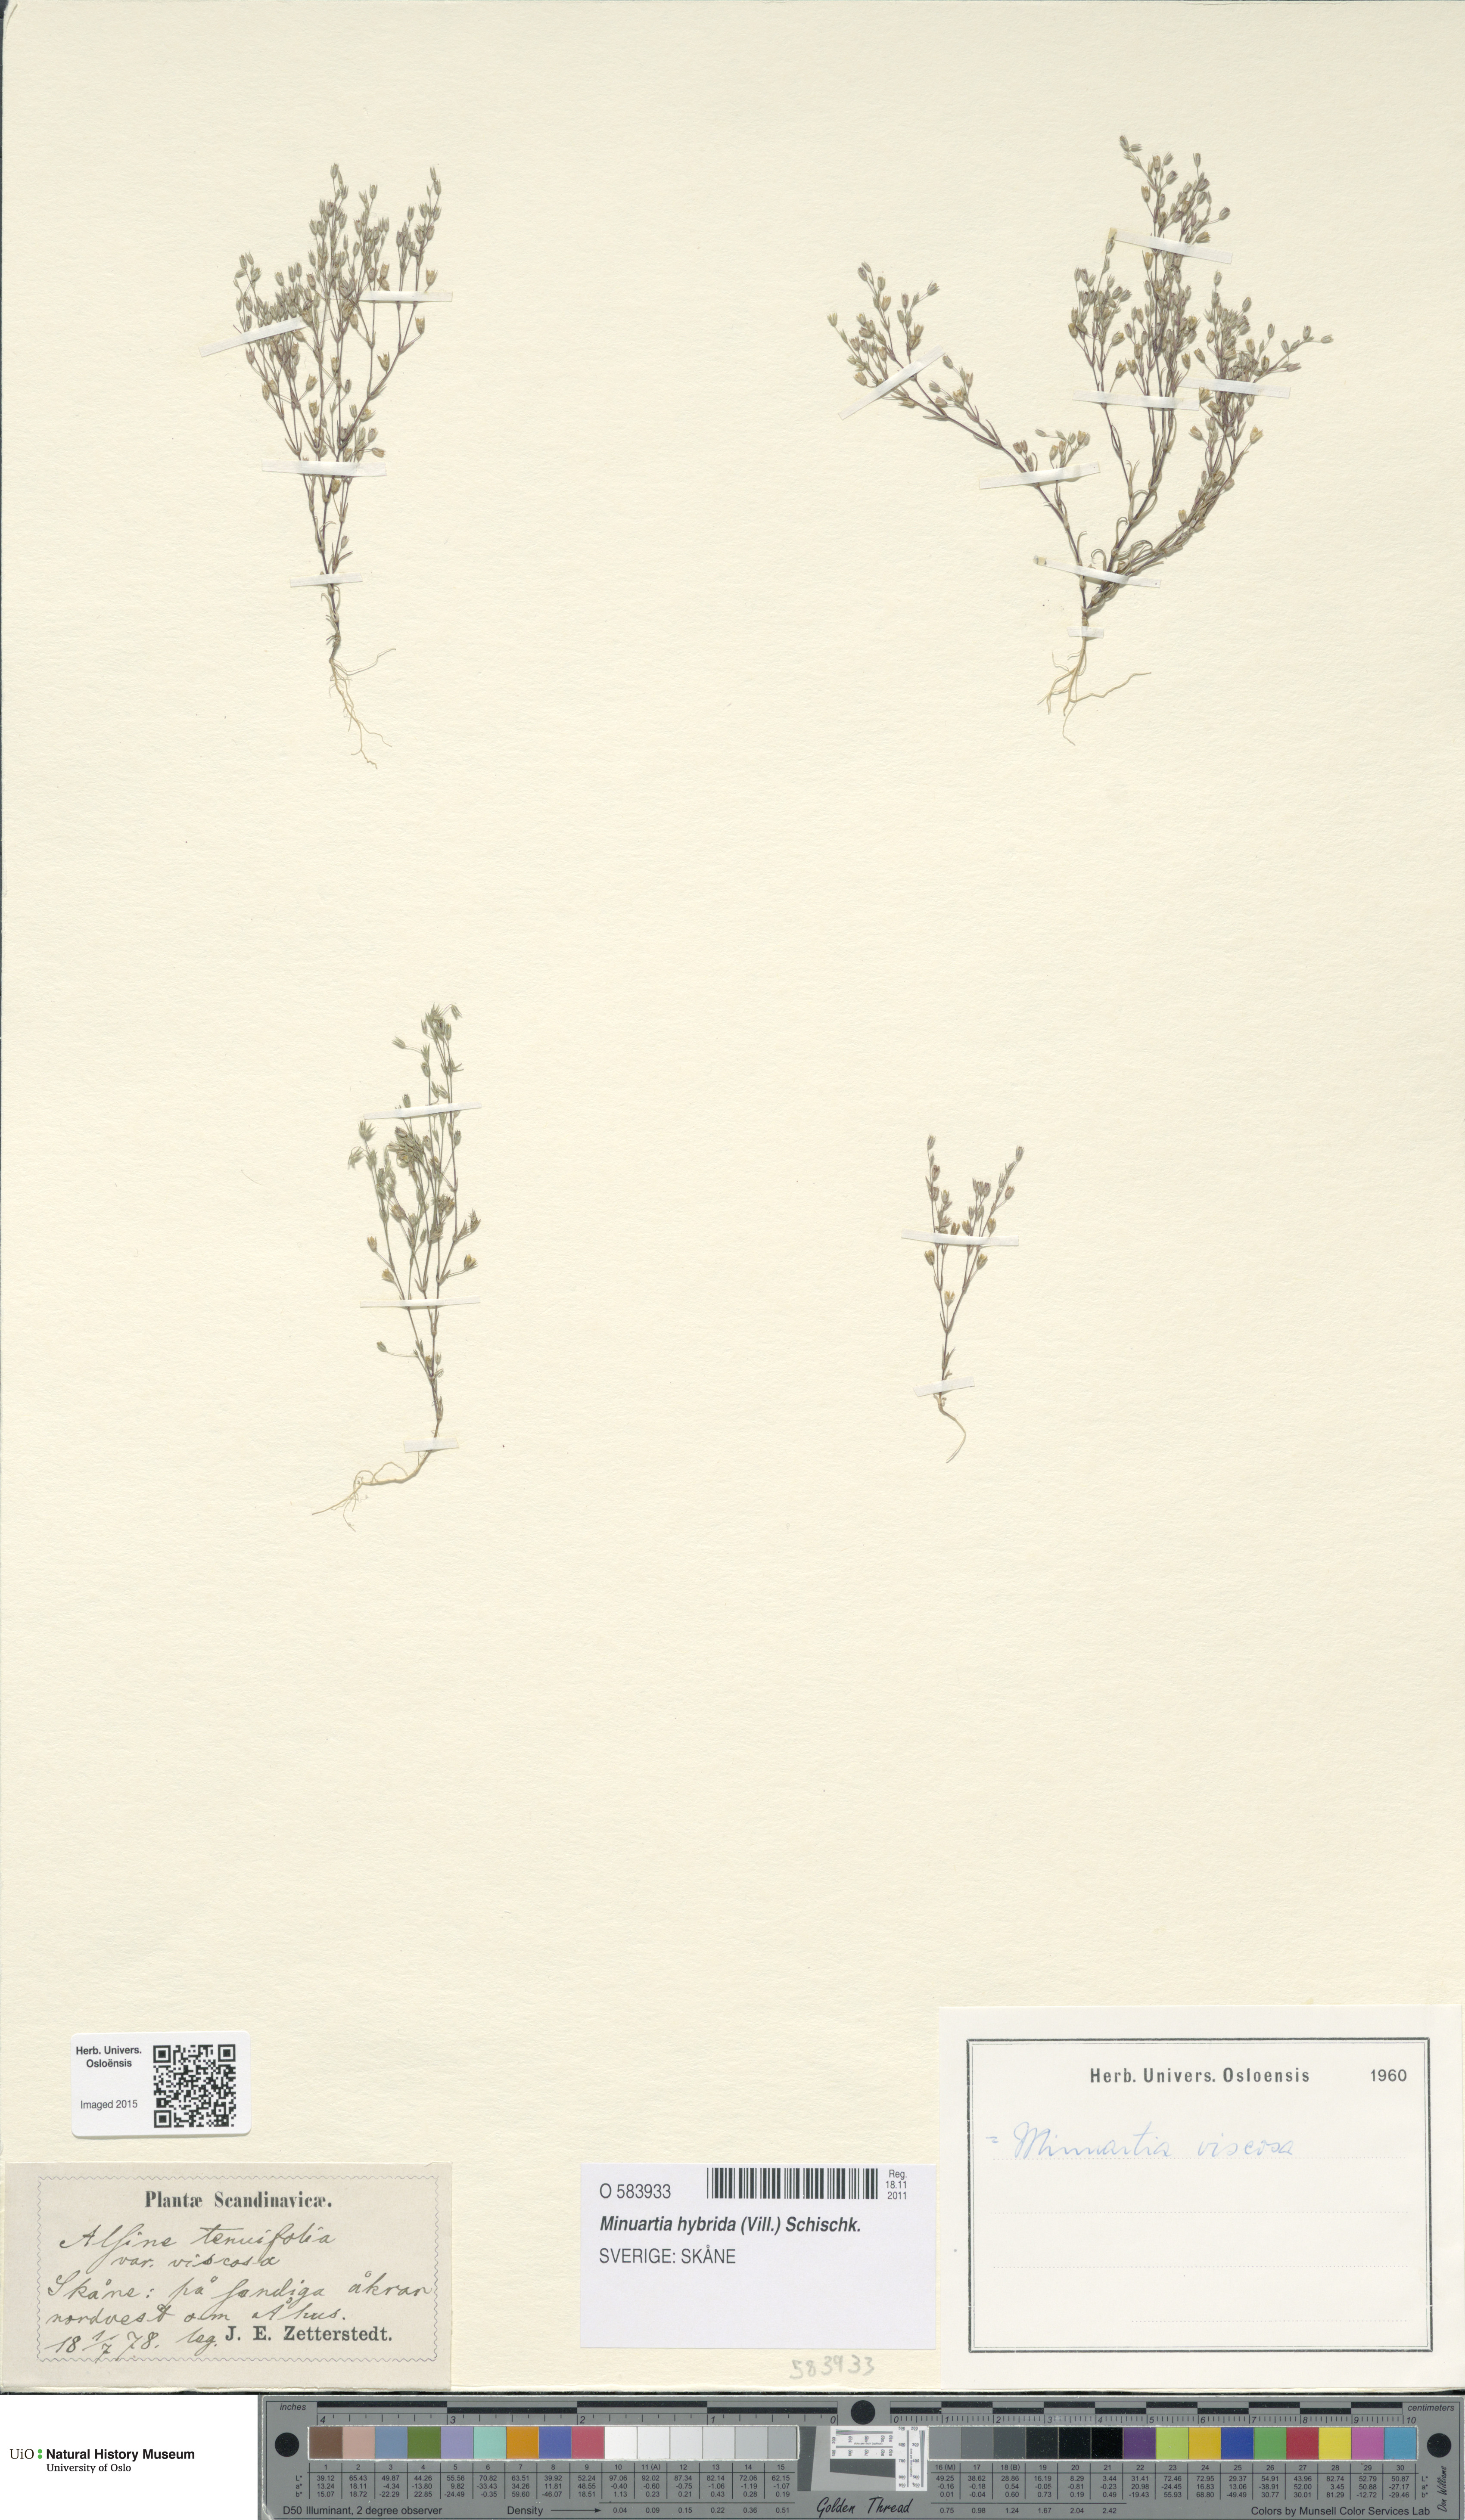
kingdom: Plantae
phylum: Tracheophyta
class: Magnoliopsida
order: Caryophyllales
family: Caryophyllaceae
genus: Sabulina
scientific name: Sabulina tenuifolia
